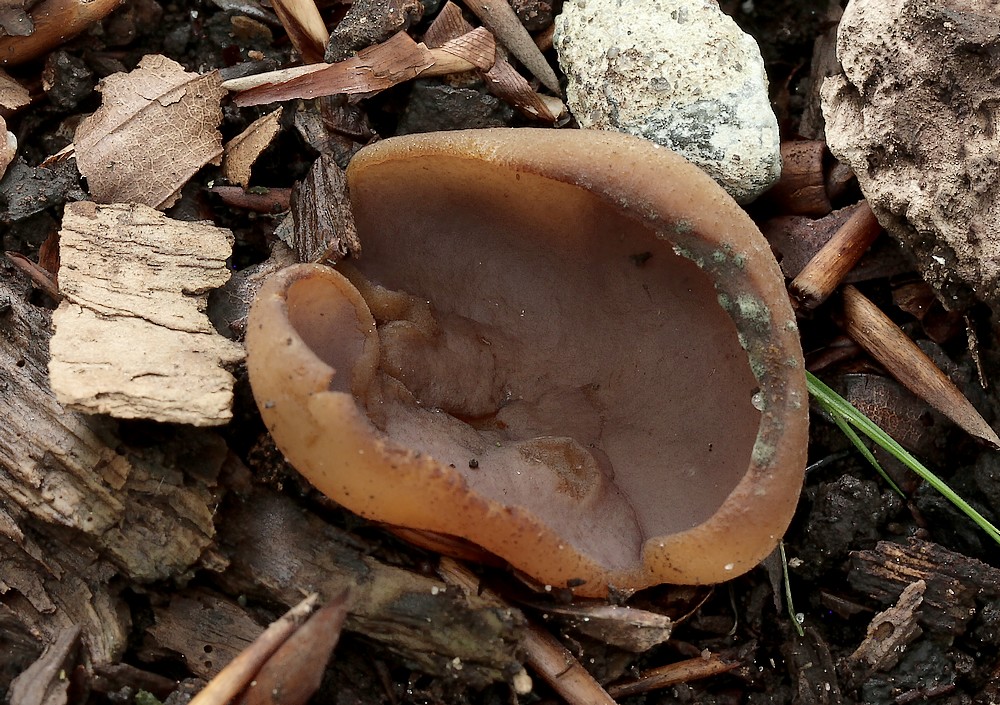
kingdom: Fungi
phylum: Ascomycota
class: Pezizomycetes
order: Pezizales
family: Pezizaceae
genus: Peziza
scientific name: Peziza
